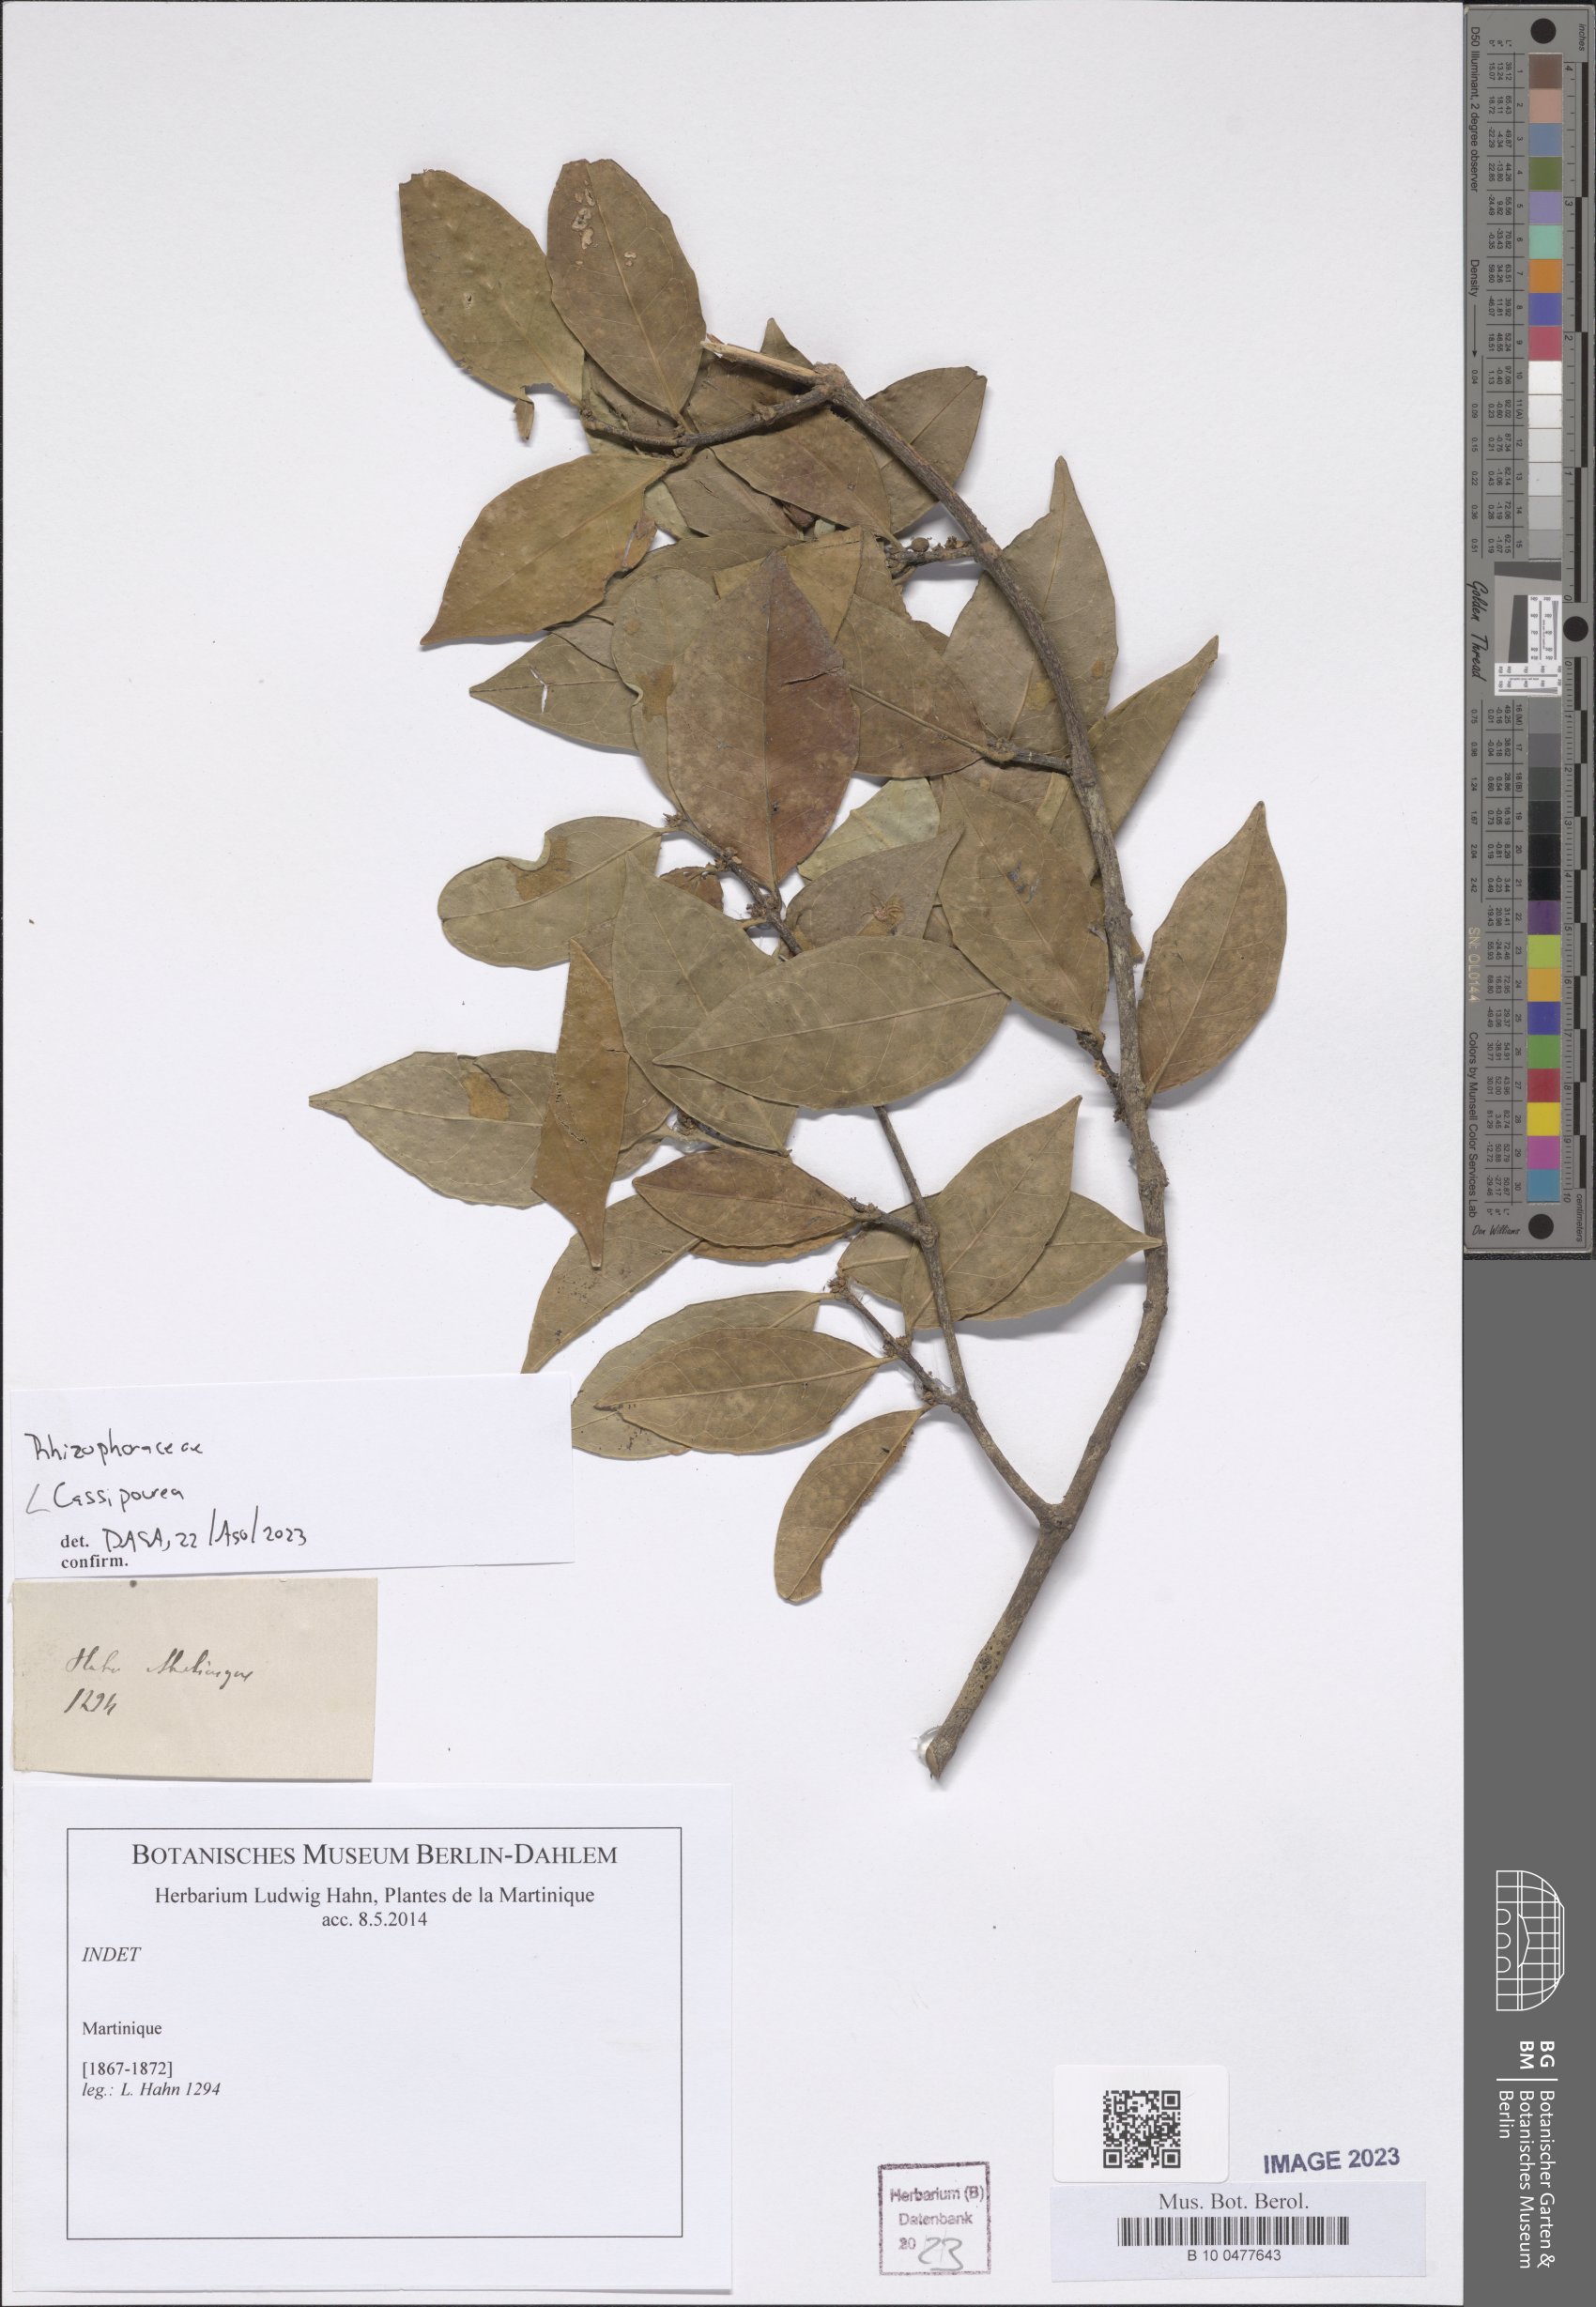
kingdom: Plantae
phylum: Tracheophyta
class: Magnoliopsida
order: Malpighiales
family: Rhizophoraceae
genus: Cassipourea
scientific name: Cassipourea
